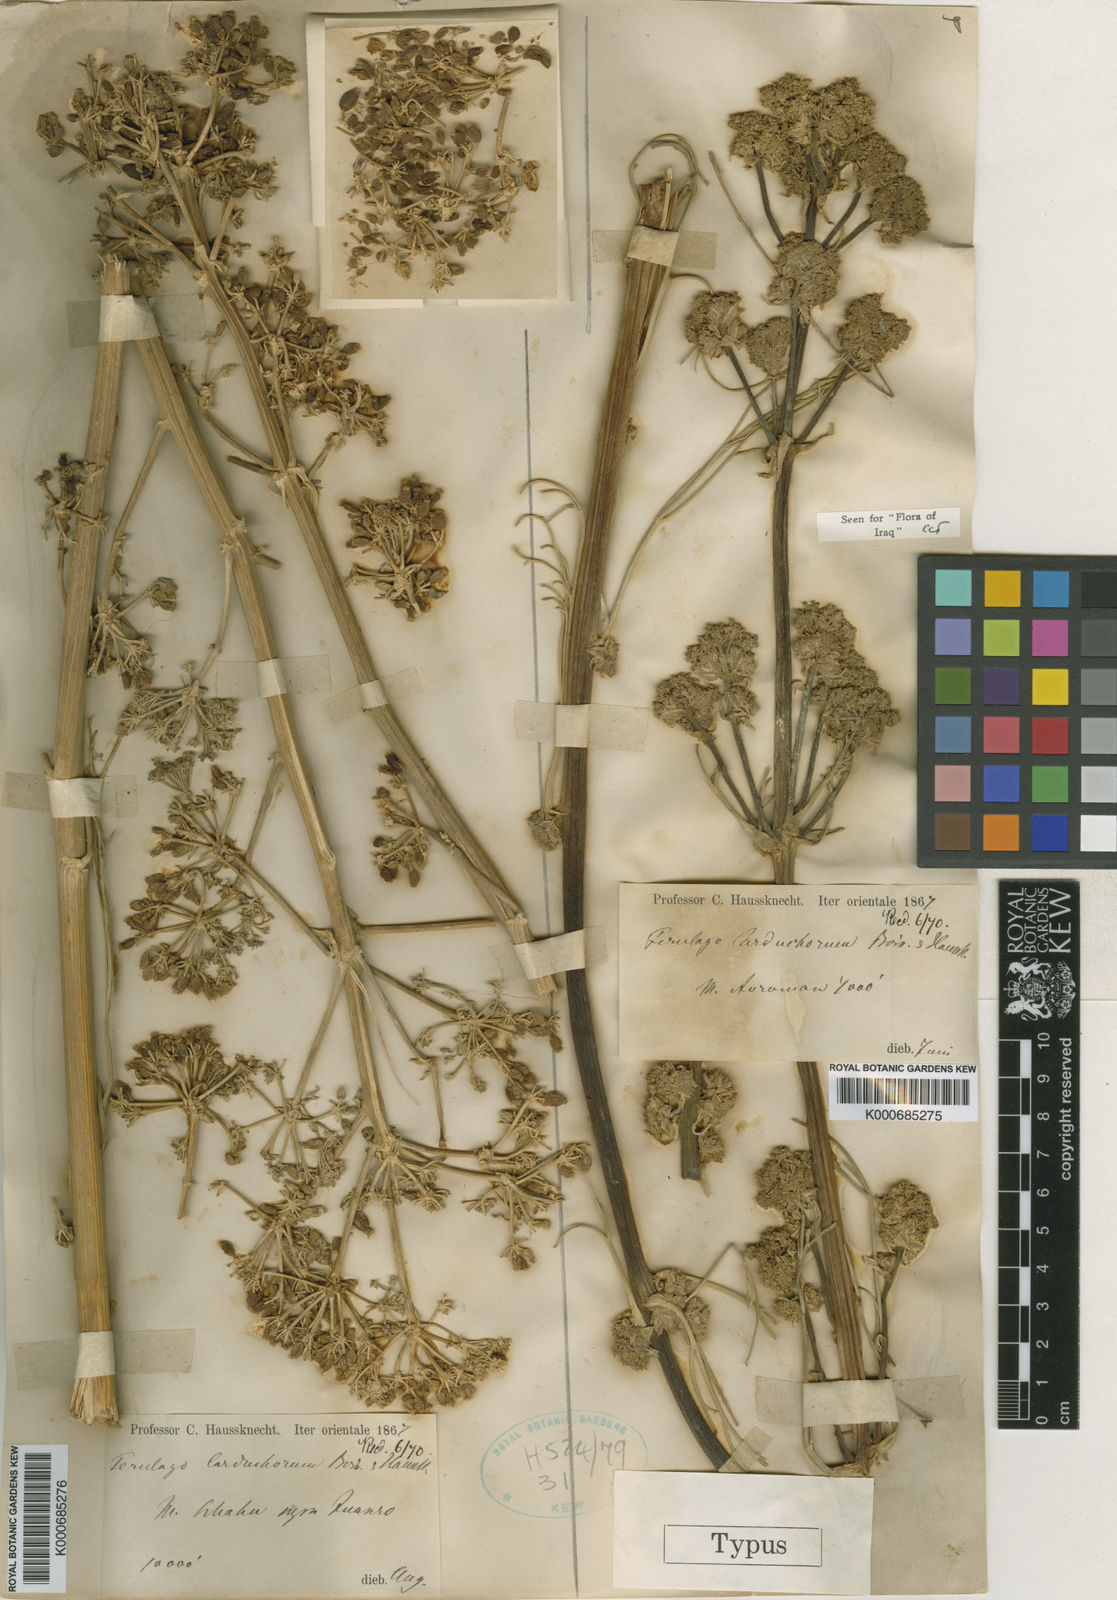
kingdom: Plantae
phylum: Tracheophyta
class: Magnoliopsida
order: Apiales
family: Apiaceae
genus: Ferulago
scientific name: Ferulago carduchorum
